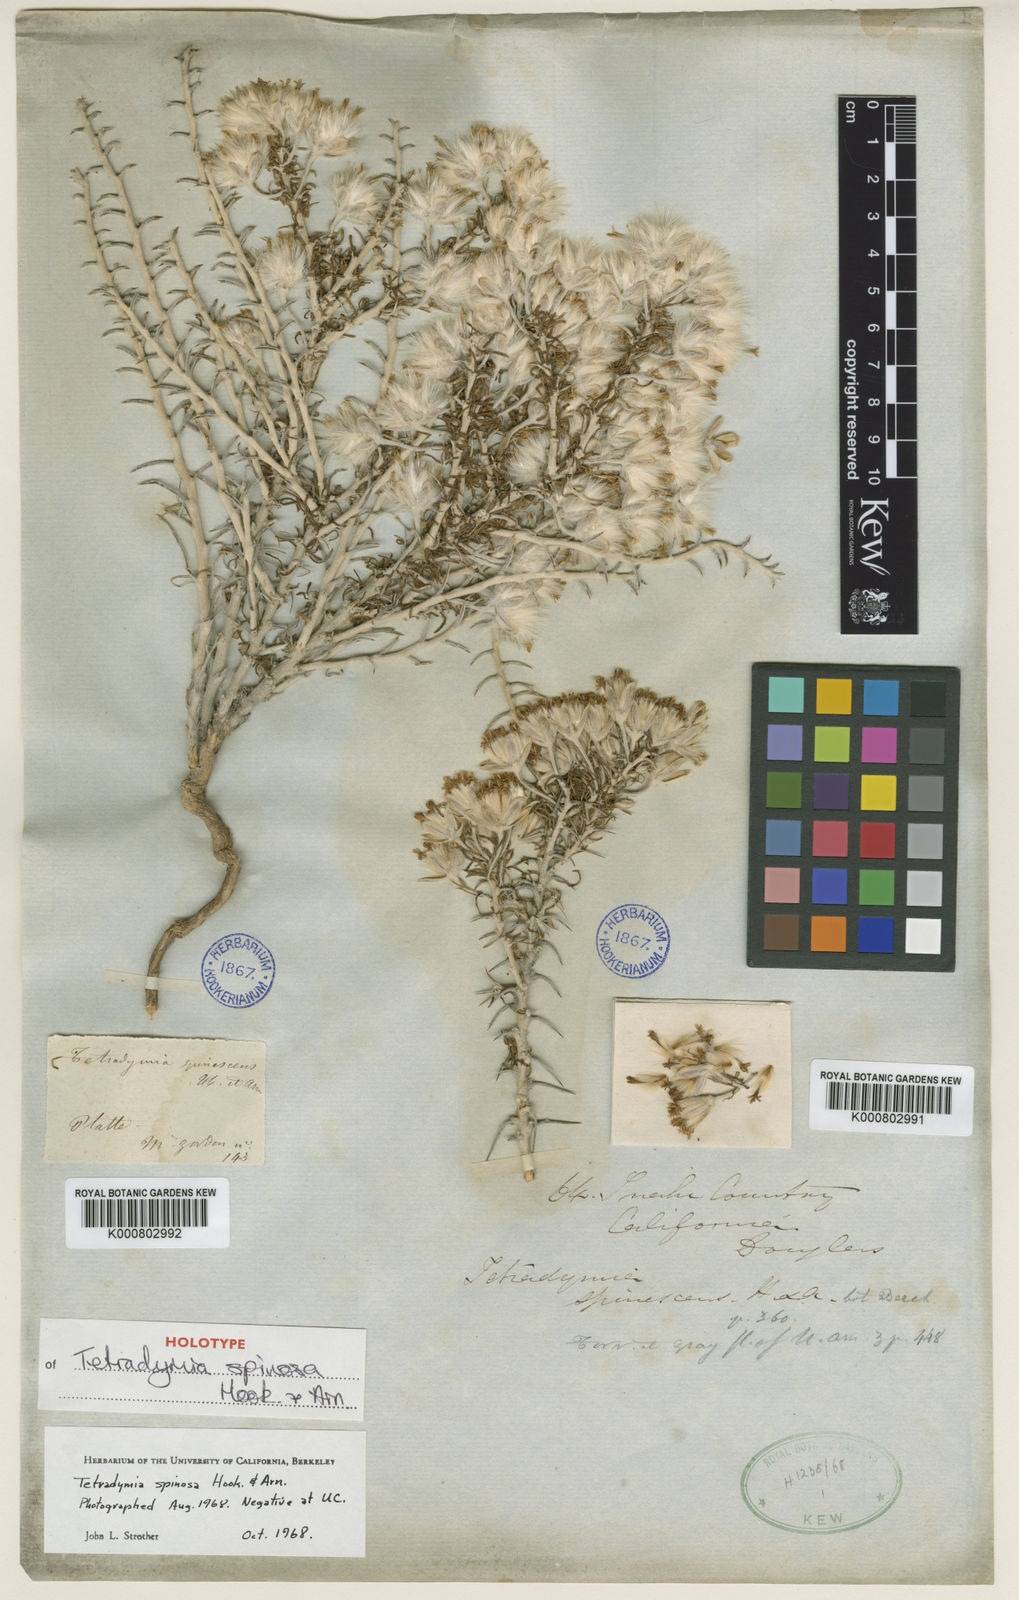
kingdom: Plantae
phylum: Tracheophyta
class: Magnoliopsida
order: Asterales
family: Asteraceae
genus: Tetradymia
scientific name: Tetradymia spinosa
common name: Thorny horsebrush
